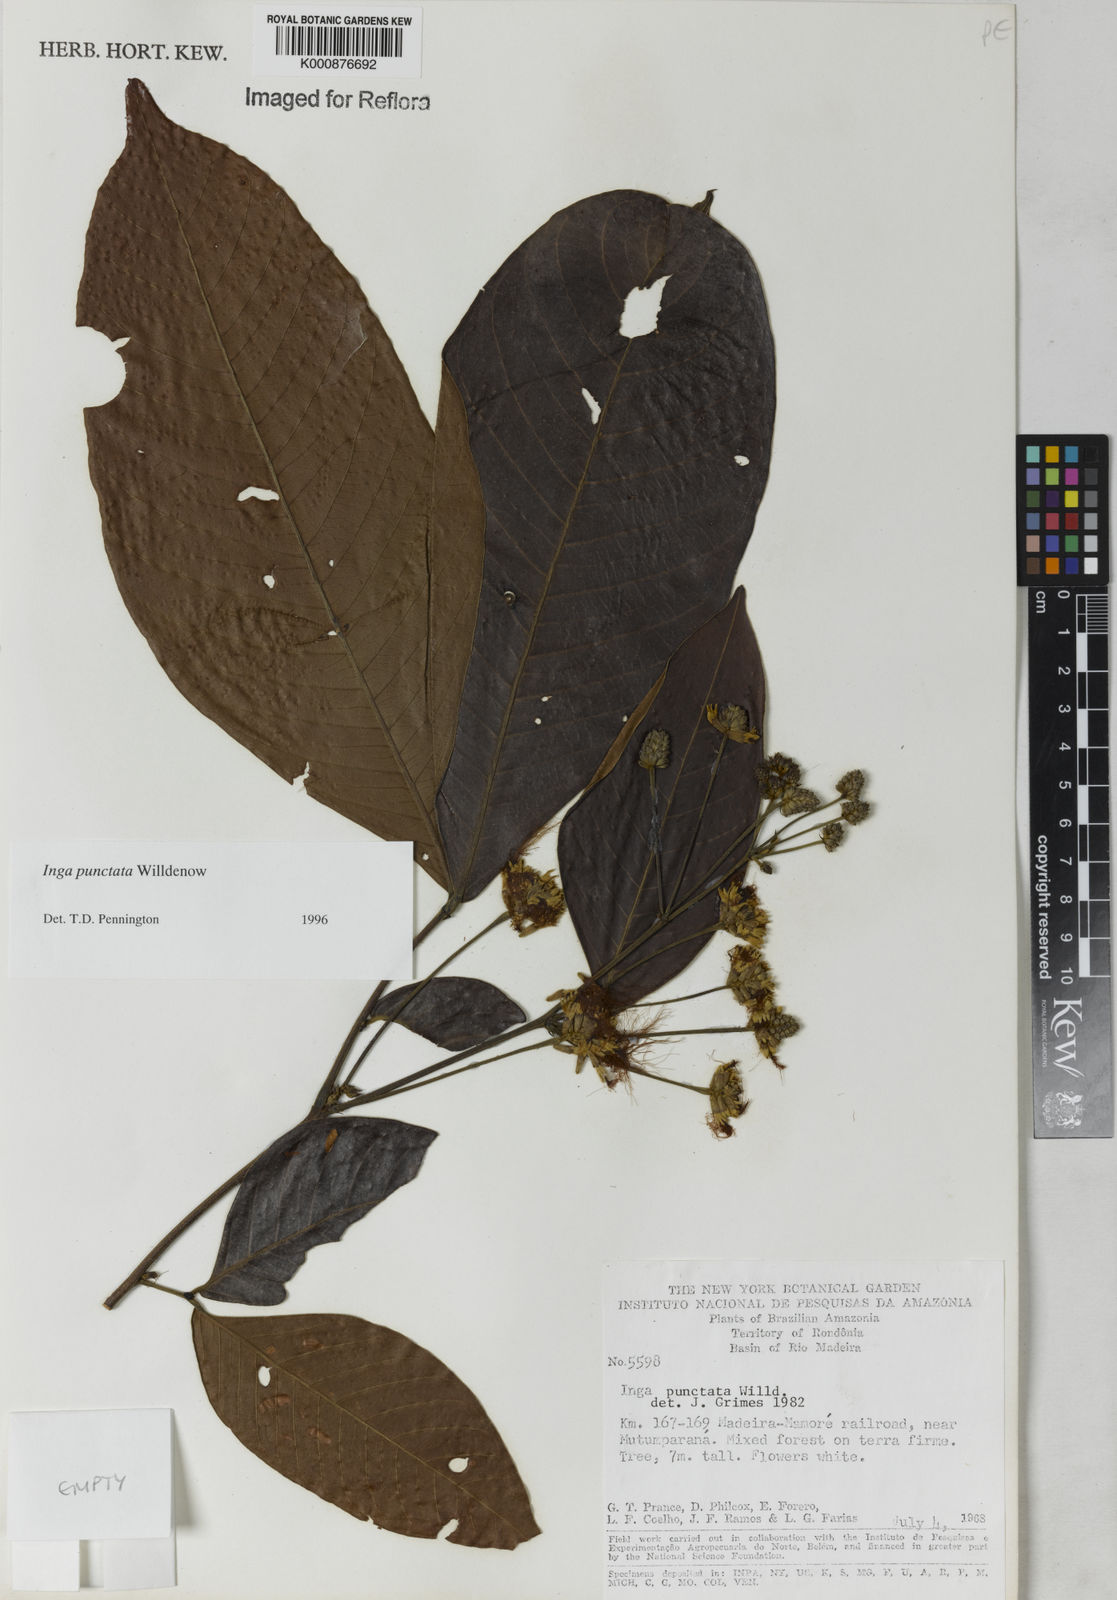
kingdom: Plantae
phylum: Tracheophyta
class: Magnoliopsida
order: Fabales
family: Fabaceae
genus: Inga
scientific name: Inga punctata
